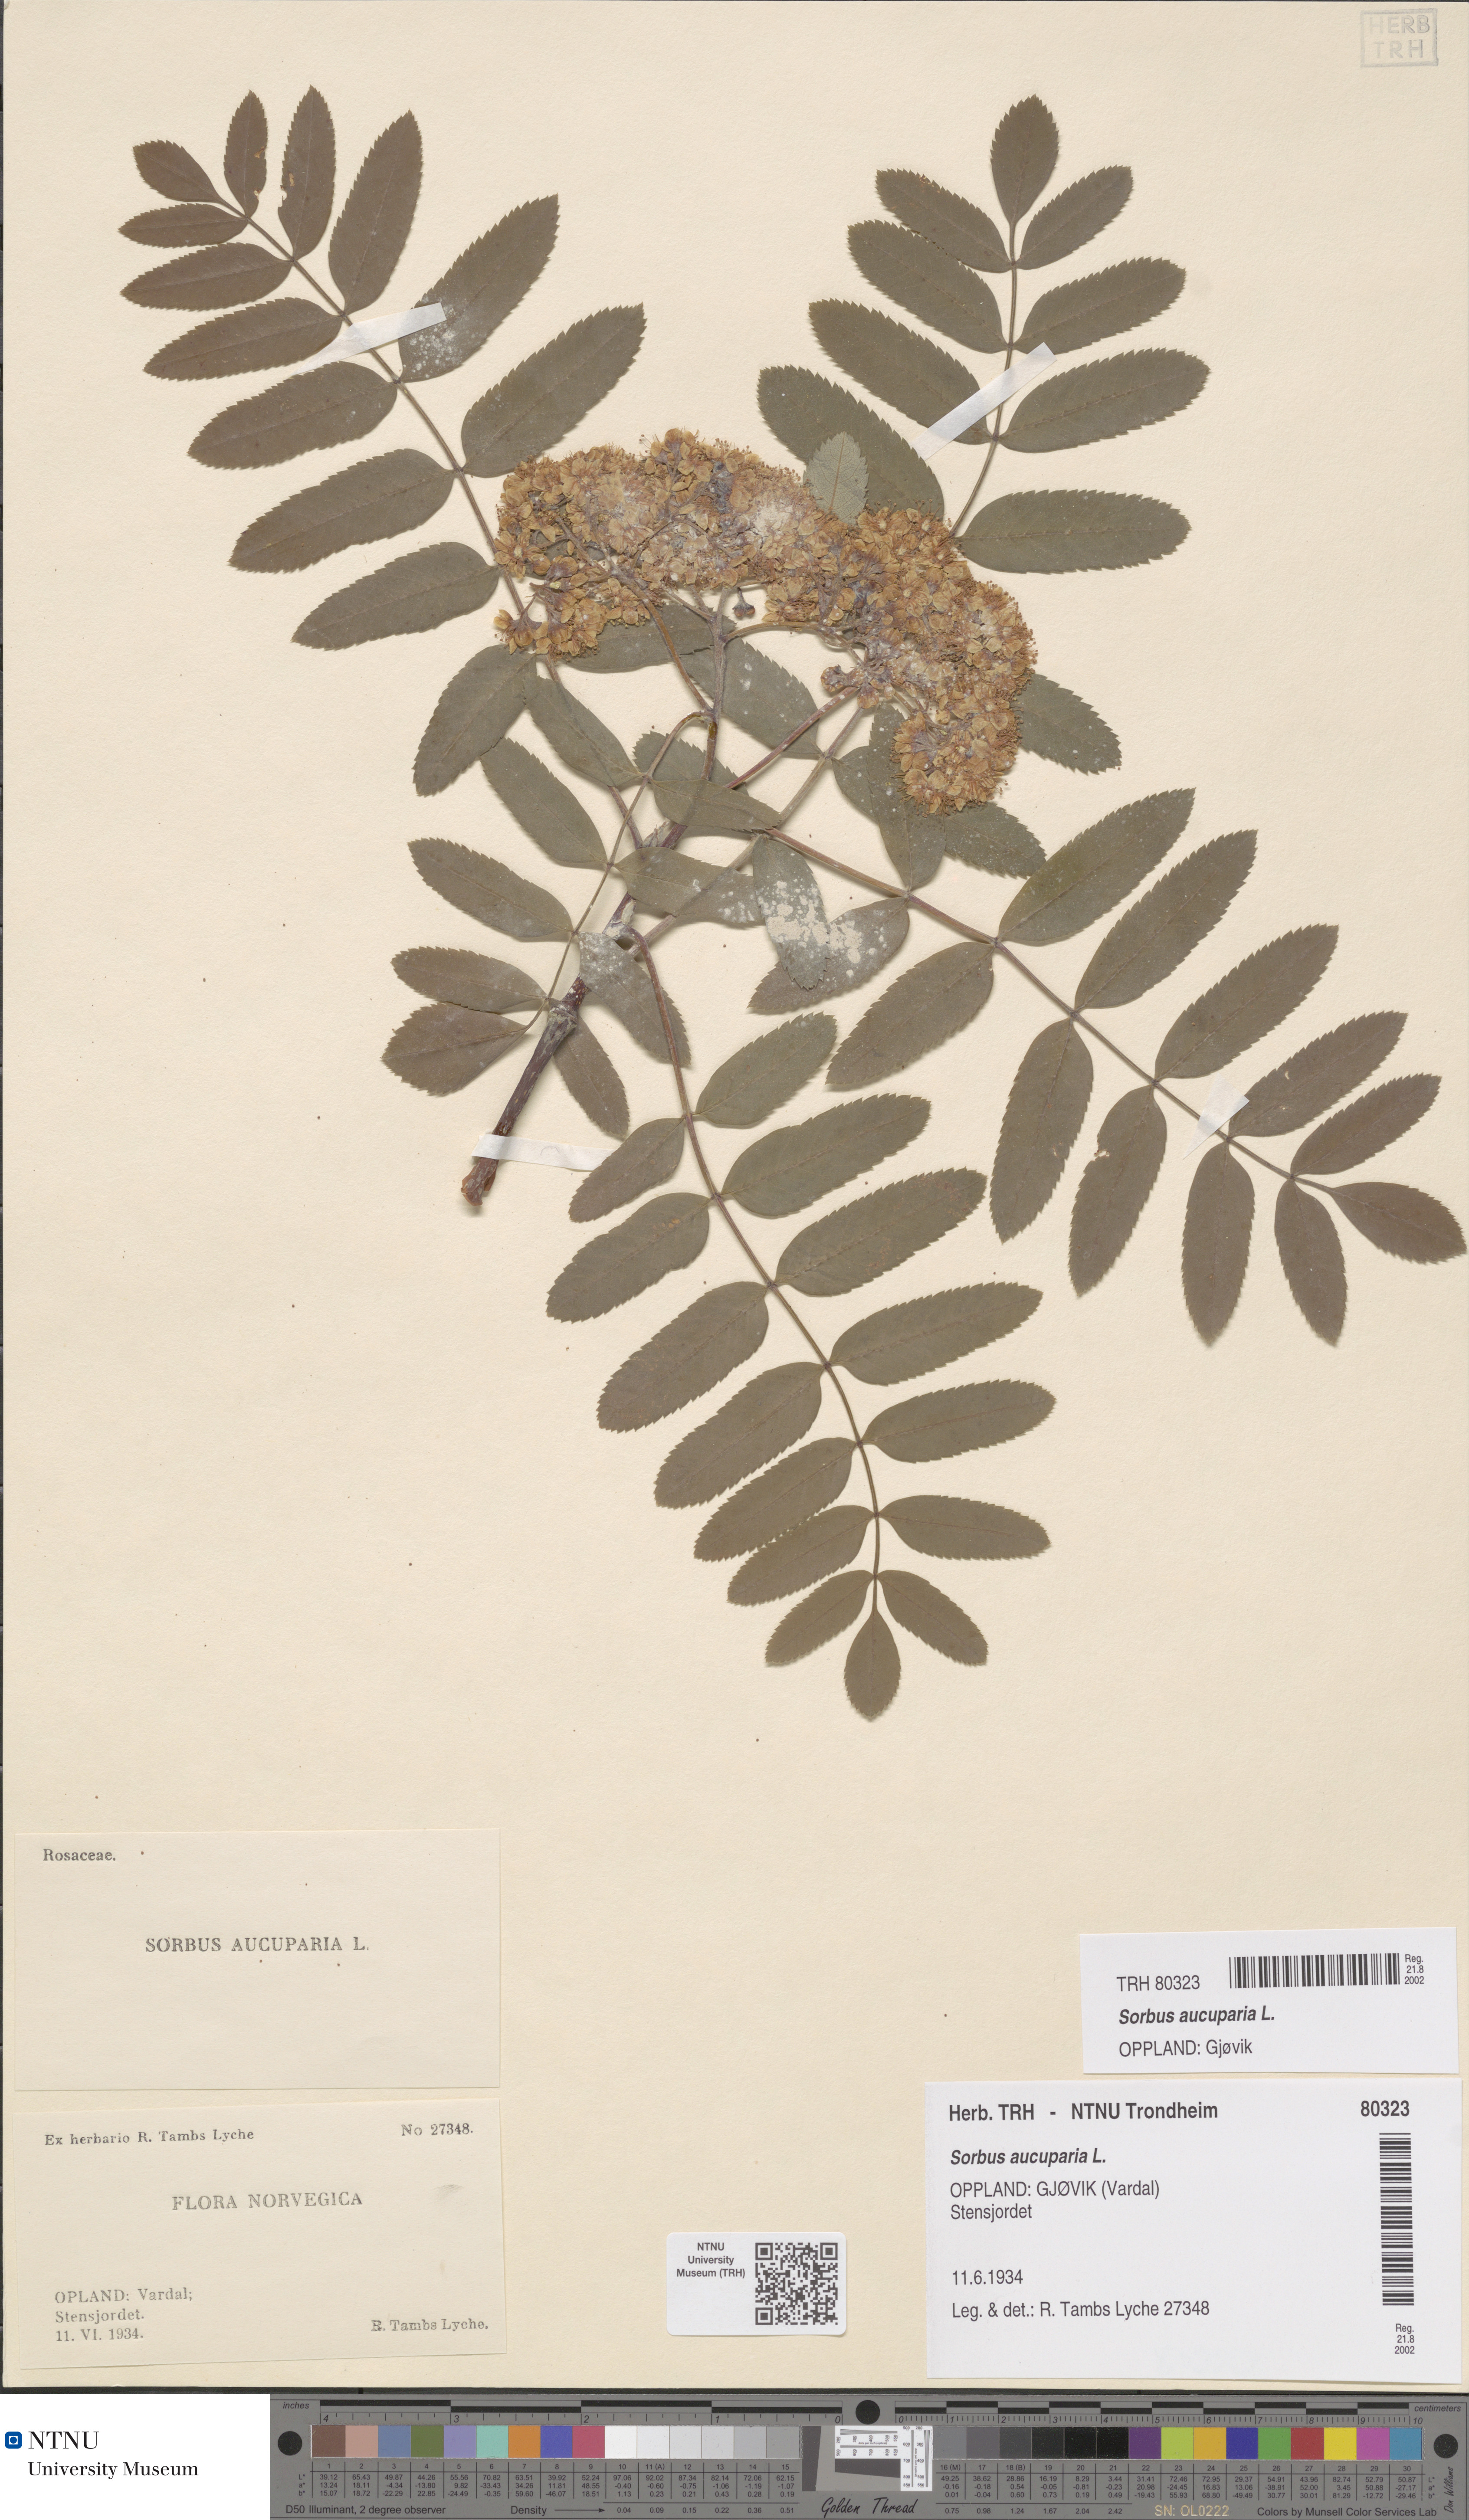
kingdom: Plantae
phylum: Tracheophyta
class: Magnoliopsida
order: Rosales
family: Rosaceae
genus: Sorbus
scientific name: Sorbus aucuparia
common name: Rowan
